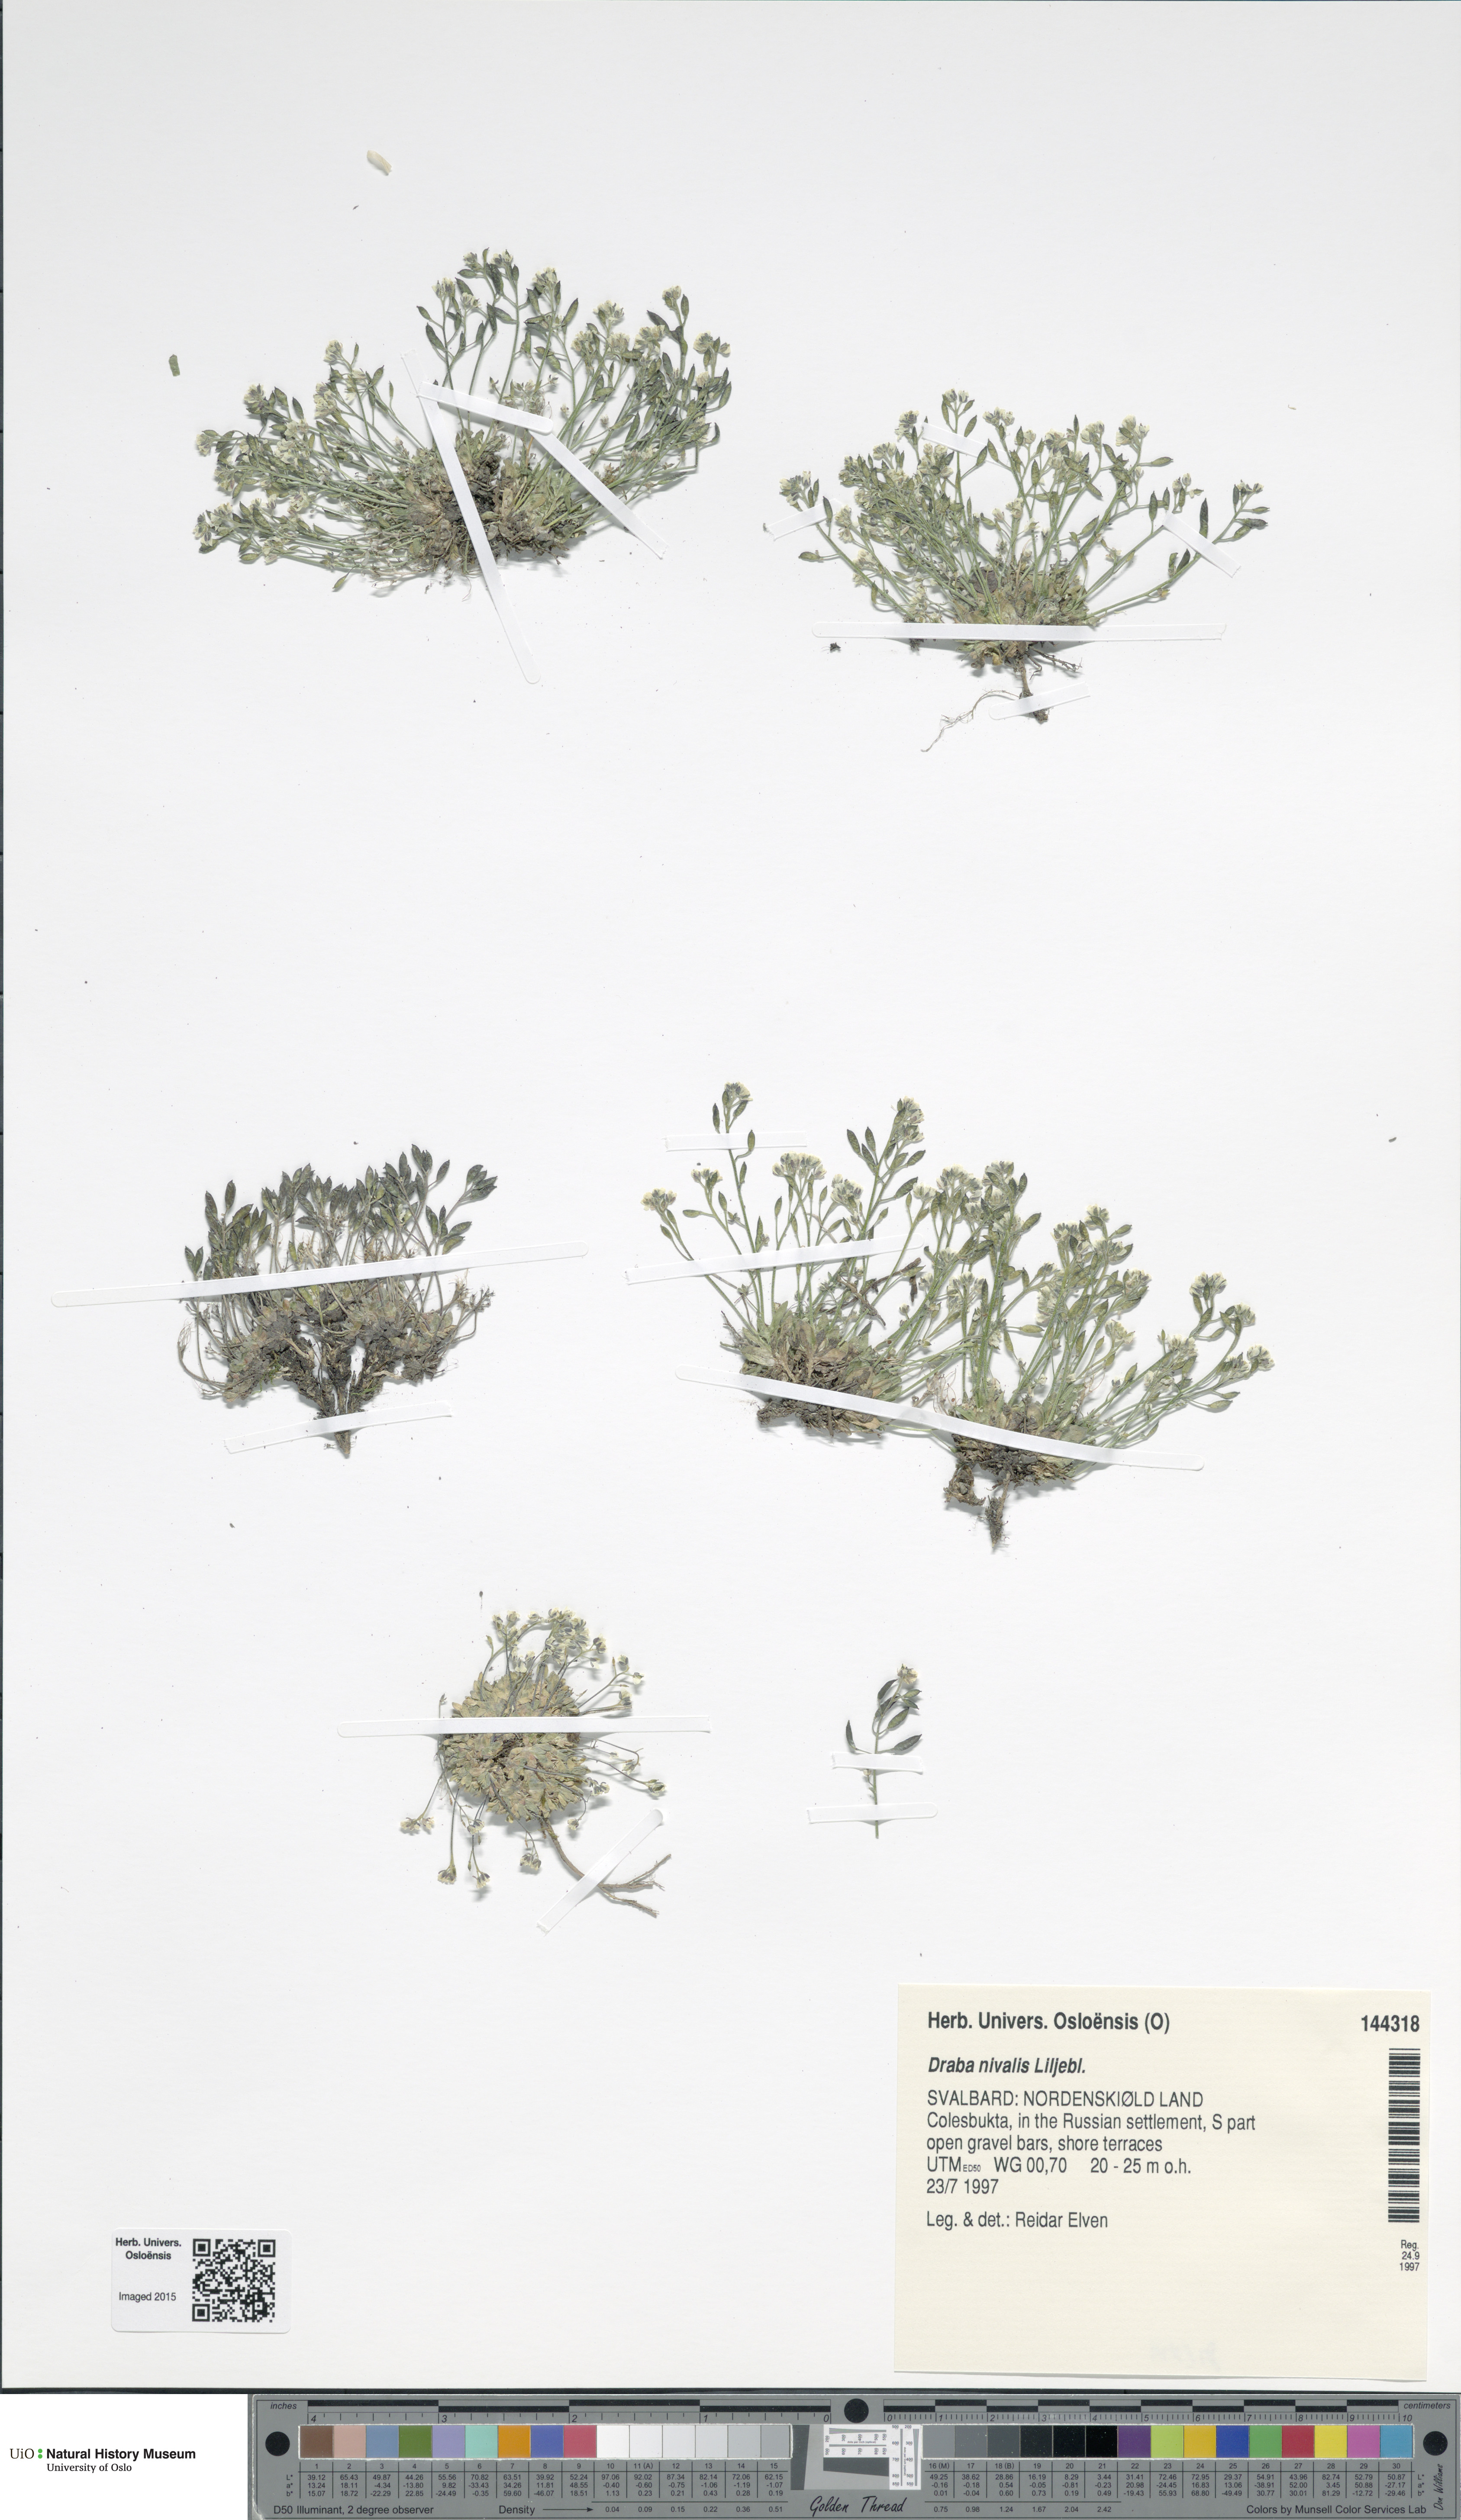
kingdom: Plantae
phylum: Tracheophyta
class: Magnoliopsida
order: Brassicales
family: Brassicaceae
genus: Draba
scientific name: Draba nivalis
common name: Snow draba
